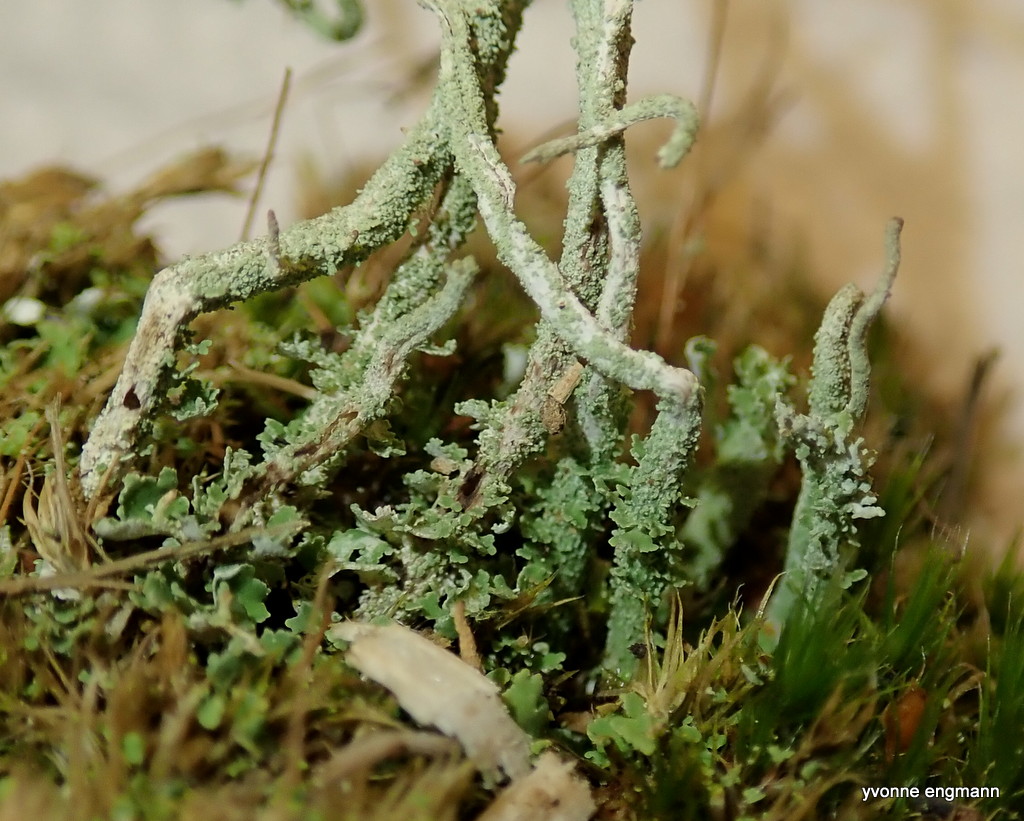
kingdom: Fungi
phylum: Ascomycota
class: Lecanoromycetes
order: Lecanorales
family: Cladoniaceae
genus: Cladonia
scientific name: Cladonia scabriuscula
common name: ru bægerlav
